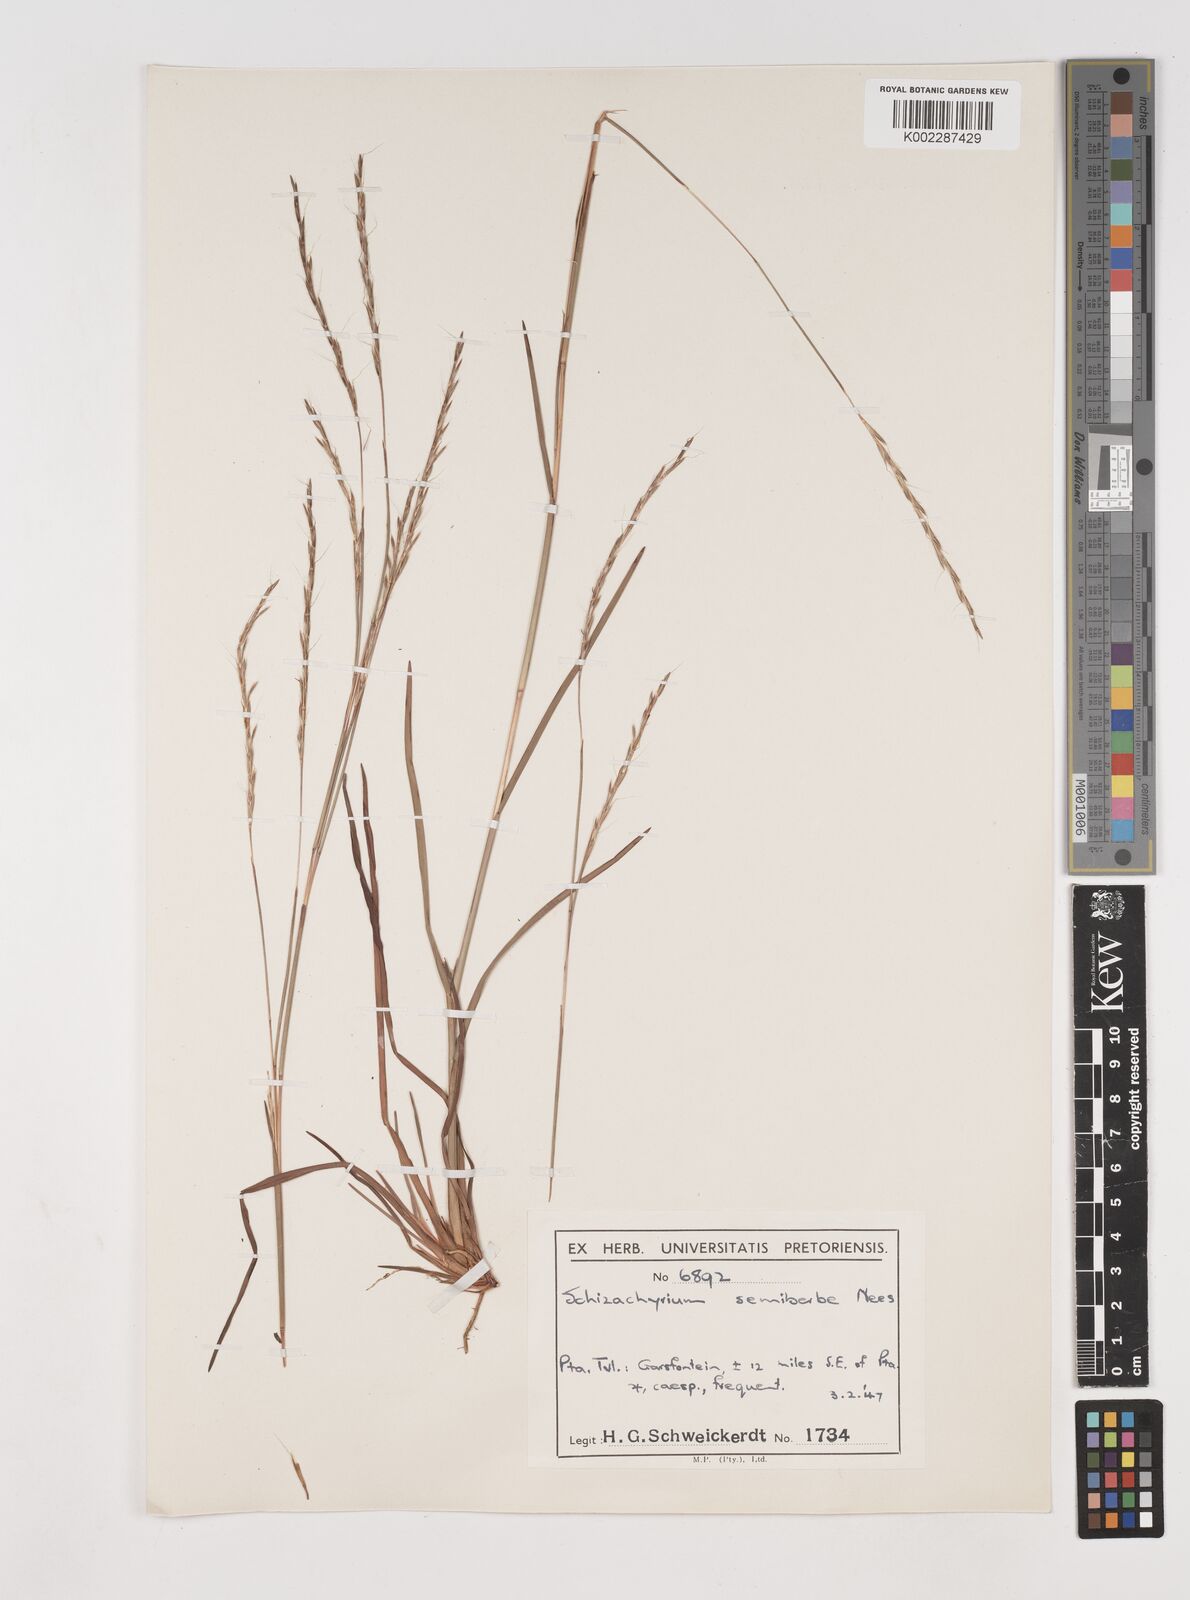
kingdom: Plantae
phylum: Tracheophyta
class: Liliopsida
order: Poales
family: Poaceae
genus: Schizachyrium
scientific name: Schizachyrium sanguineum
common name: Crimson bluestem
